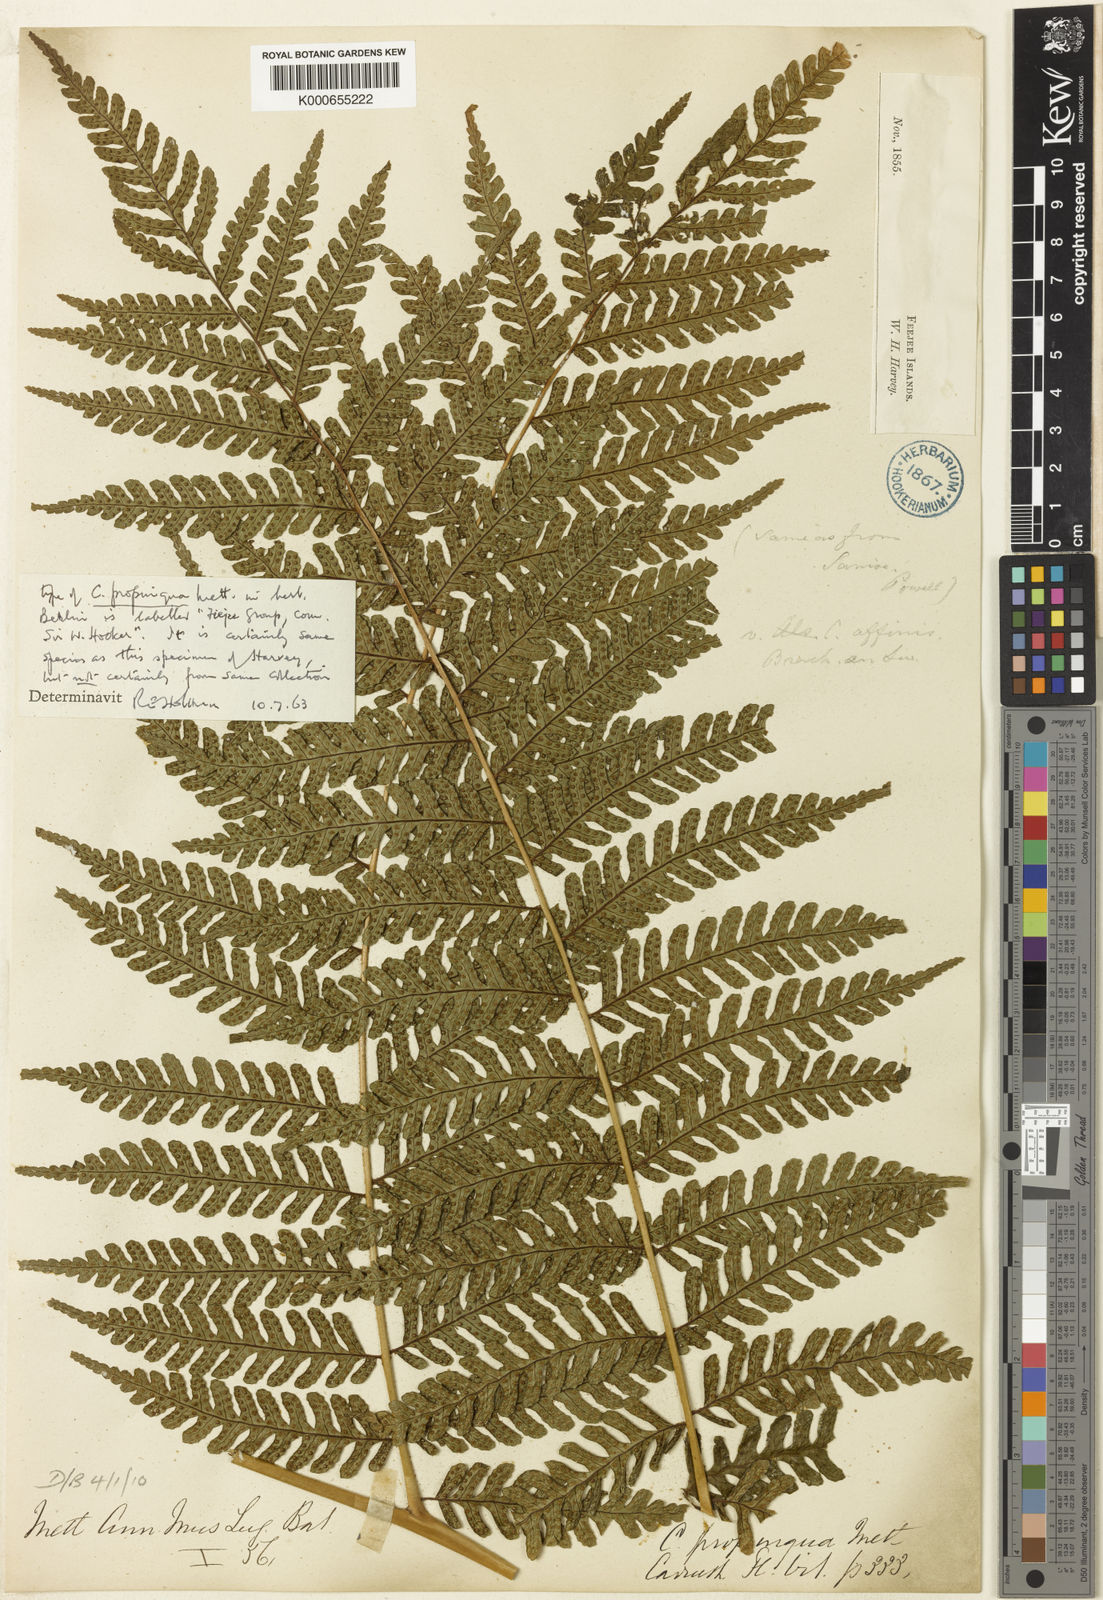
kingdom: Plantae
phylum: Tracheophyta
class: Polypodiopsida
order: Cyatheales
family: Cyatheaceae
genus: Sphaeropteris
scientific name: Sphaeropteris propinqua
